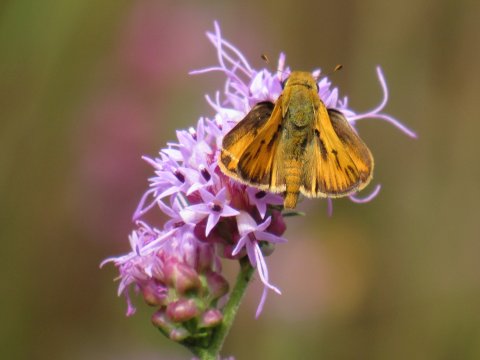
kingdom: Animalia
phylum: Arthropoda
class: Insecta
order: Lepidoptera
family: Hesperiidae
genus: Hylephila
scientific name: Hylephila phyleus
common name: Fiery Skipper
